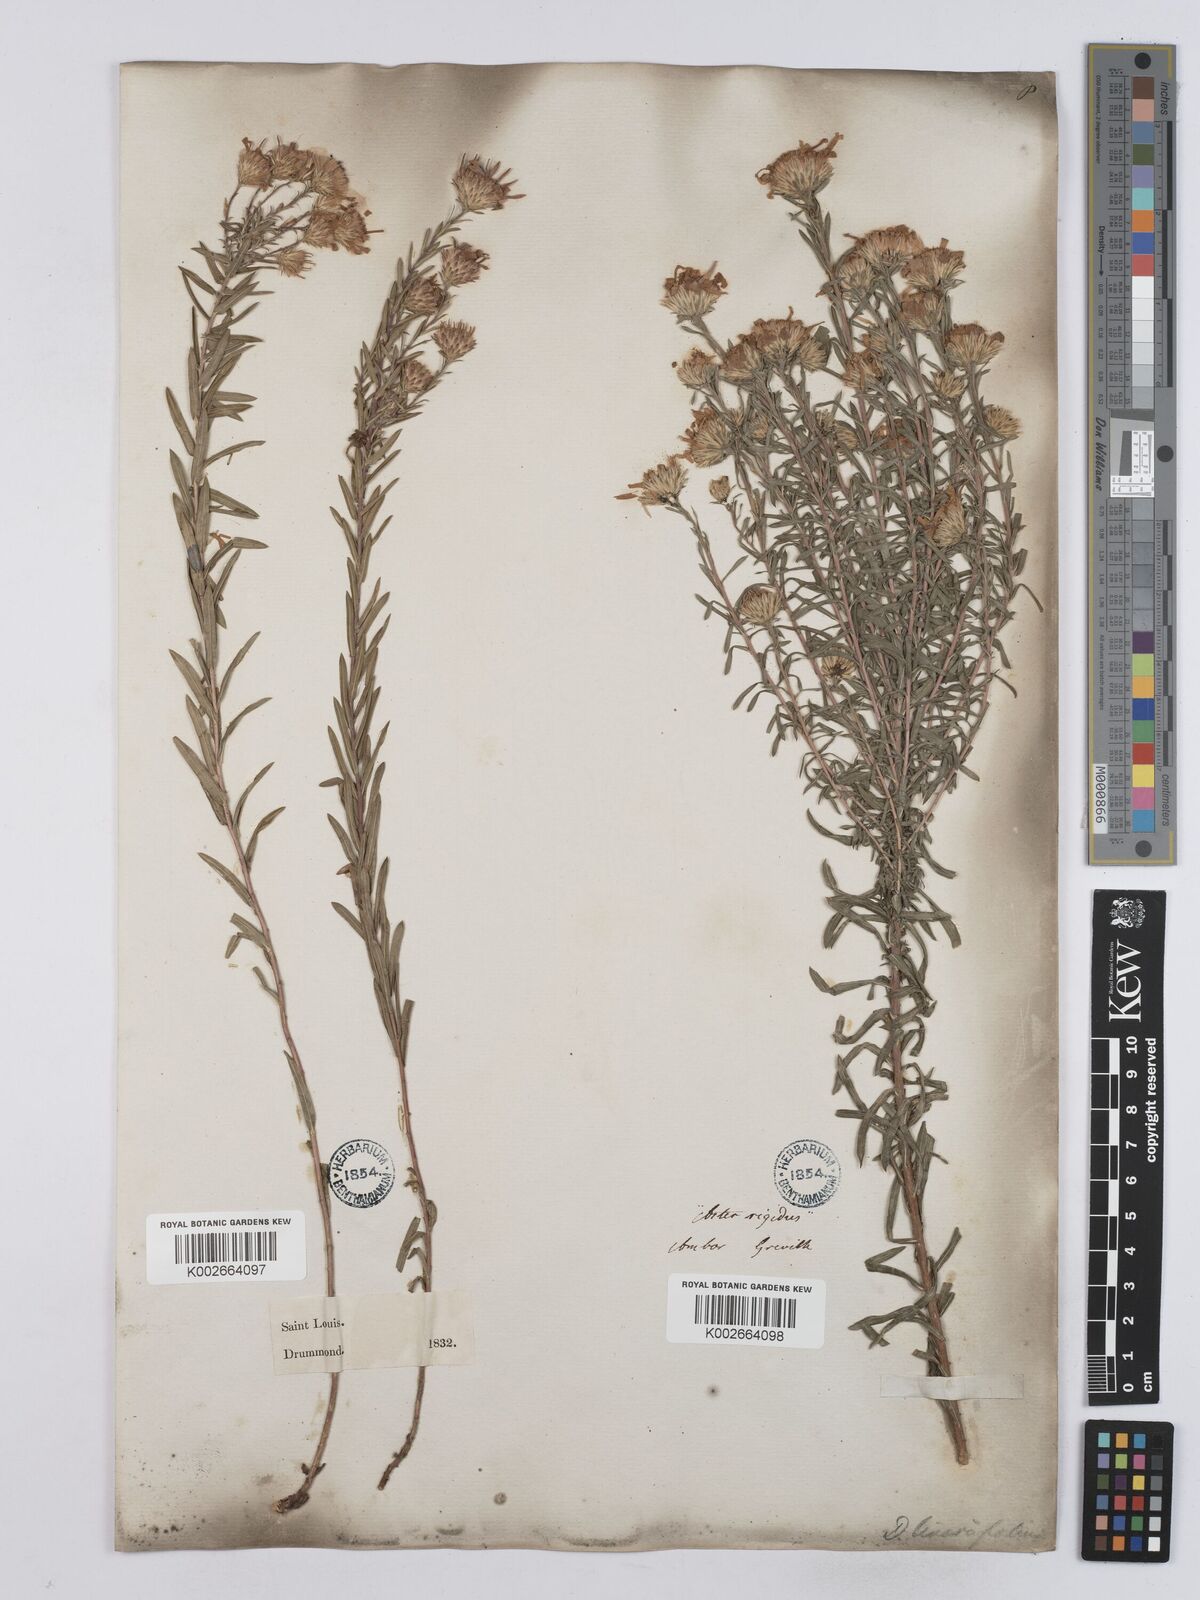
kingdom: Plantae
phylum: Tracheophyta
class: Magnoliopsida
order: Asterales
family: Asteraceae
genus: Ionactis
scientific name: Ionactis linariifolia
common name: Flax-leaf aster
